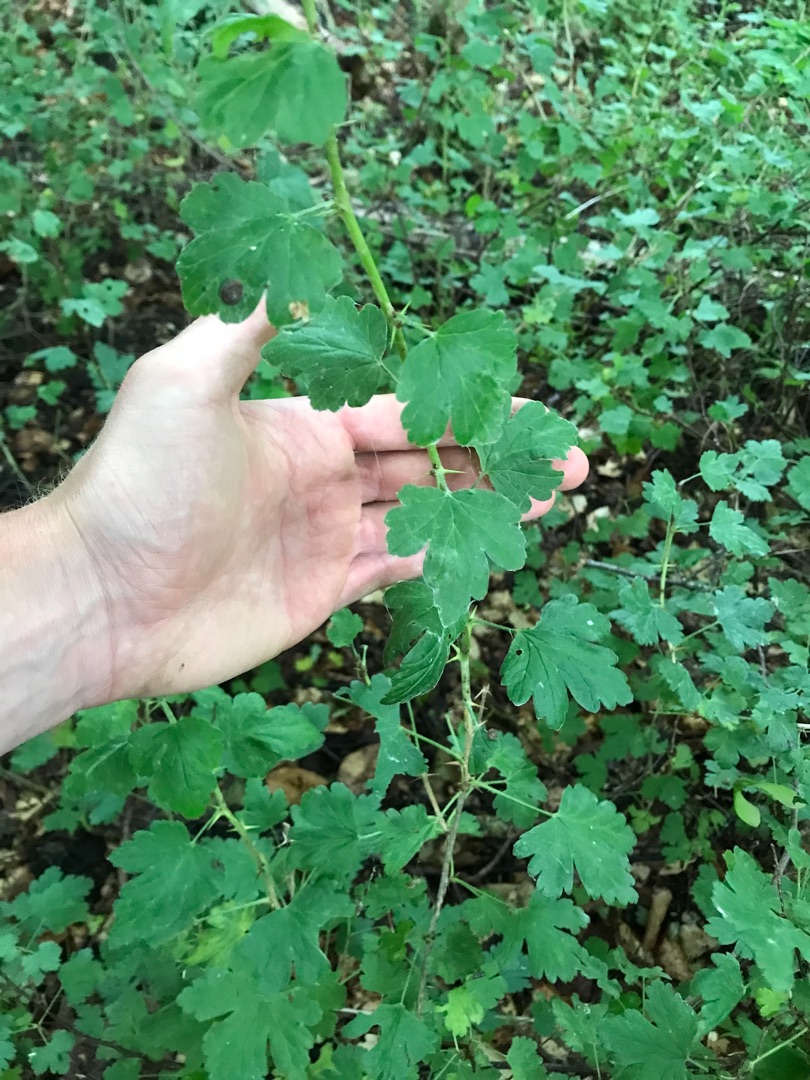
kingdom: Plantae
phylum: Tracheophyta
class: Magnoliopsida
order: Saxifragales
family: Grossulariaceae
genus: Ribes
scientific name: Ribes uva-crispa
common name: Stikkelsbær
